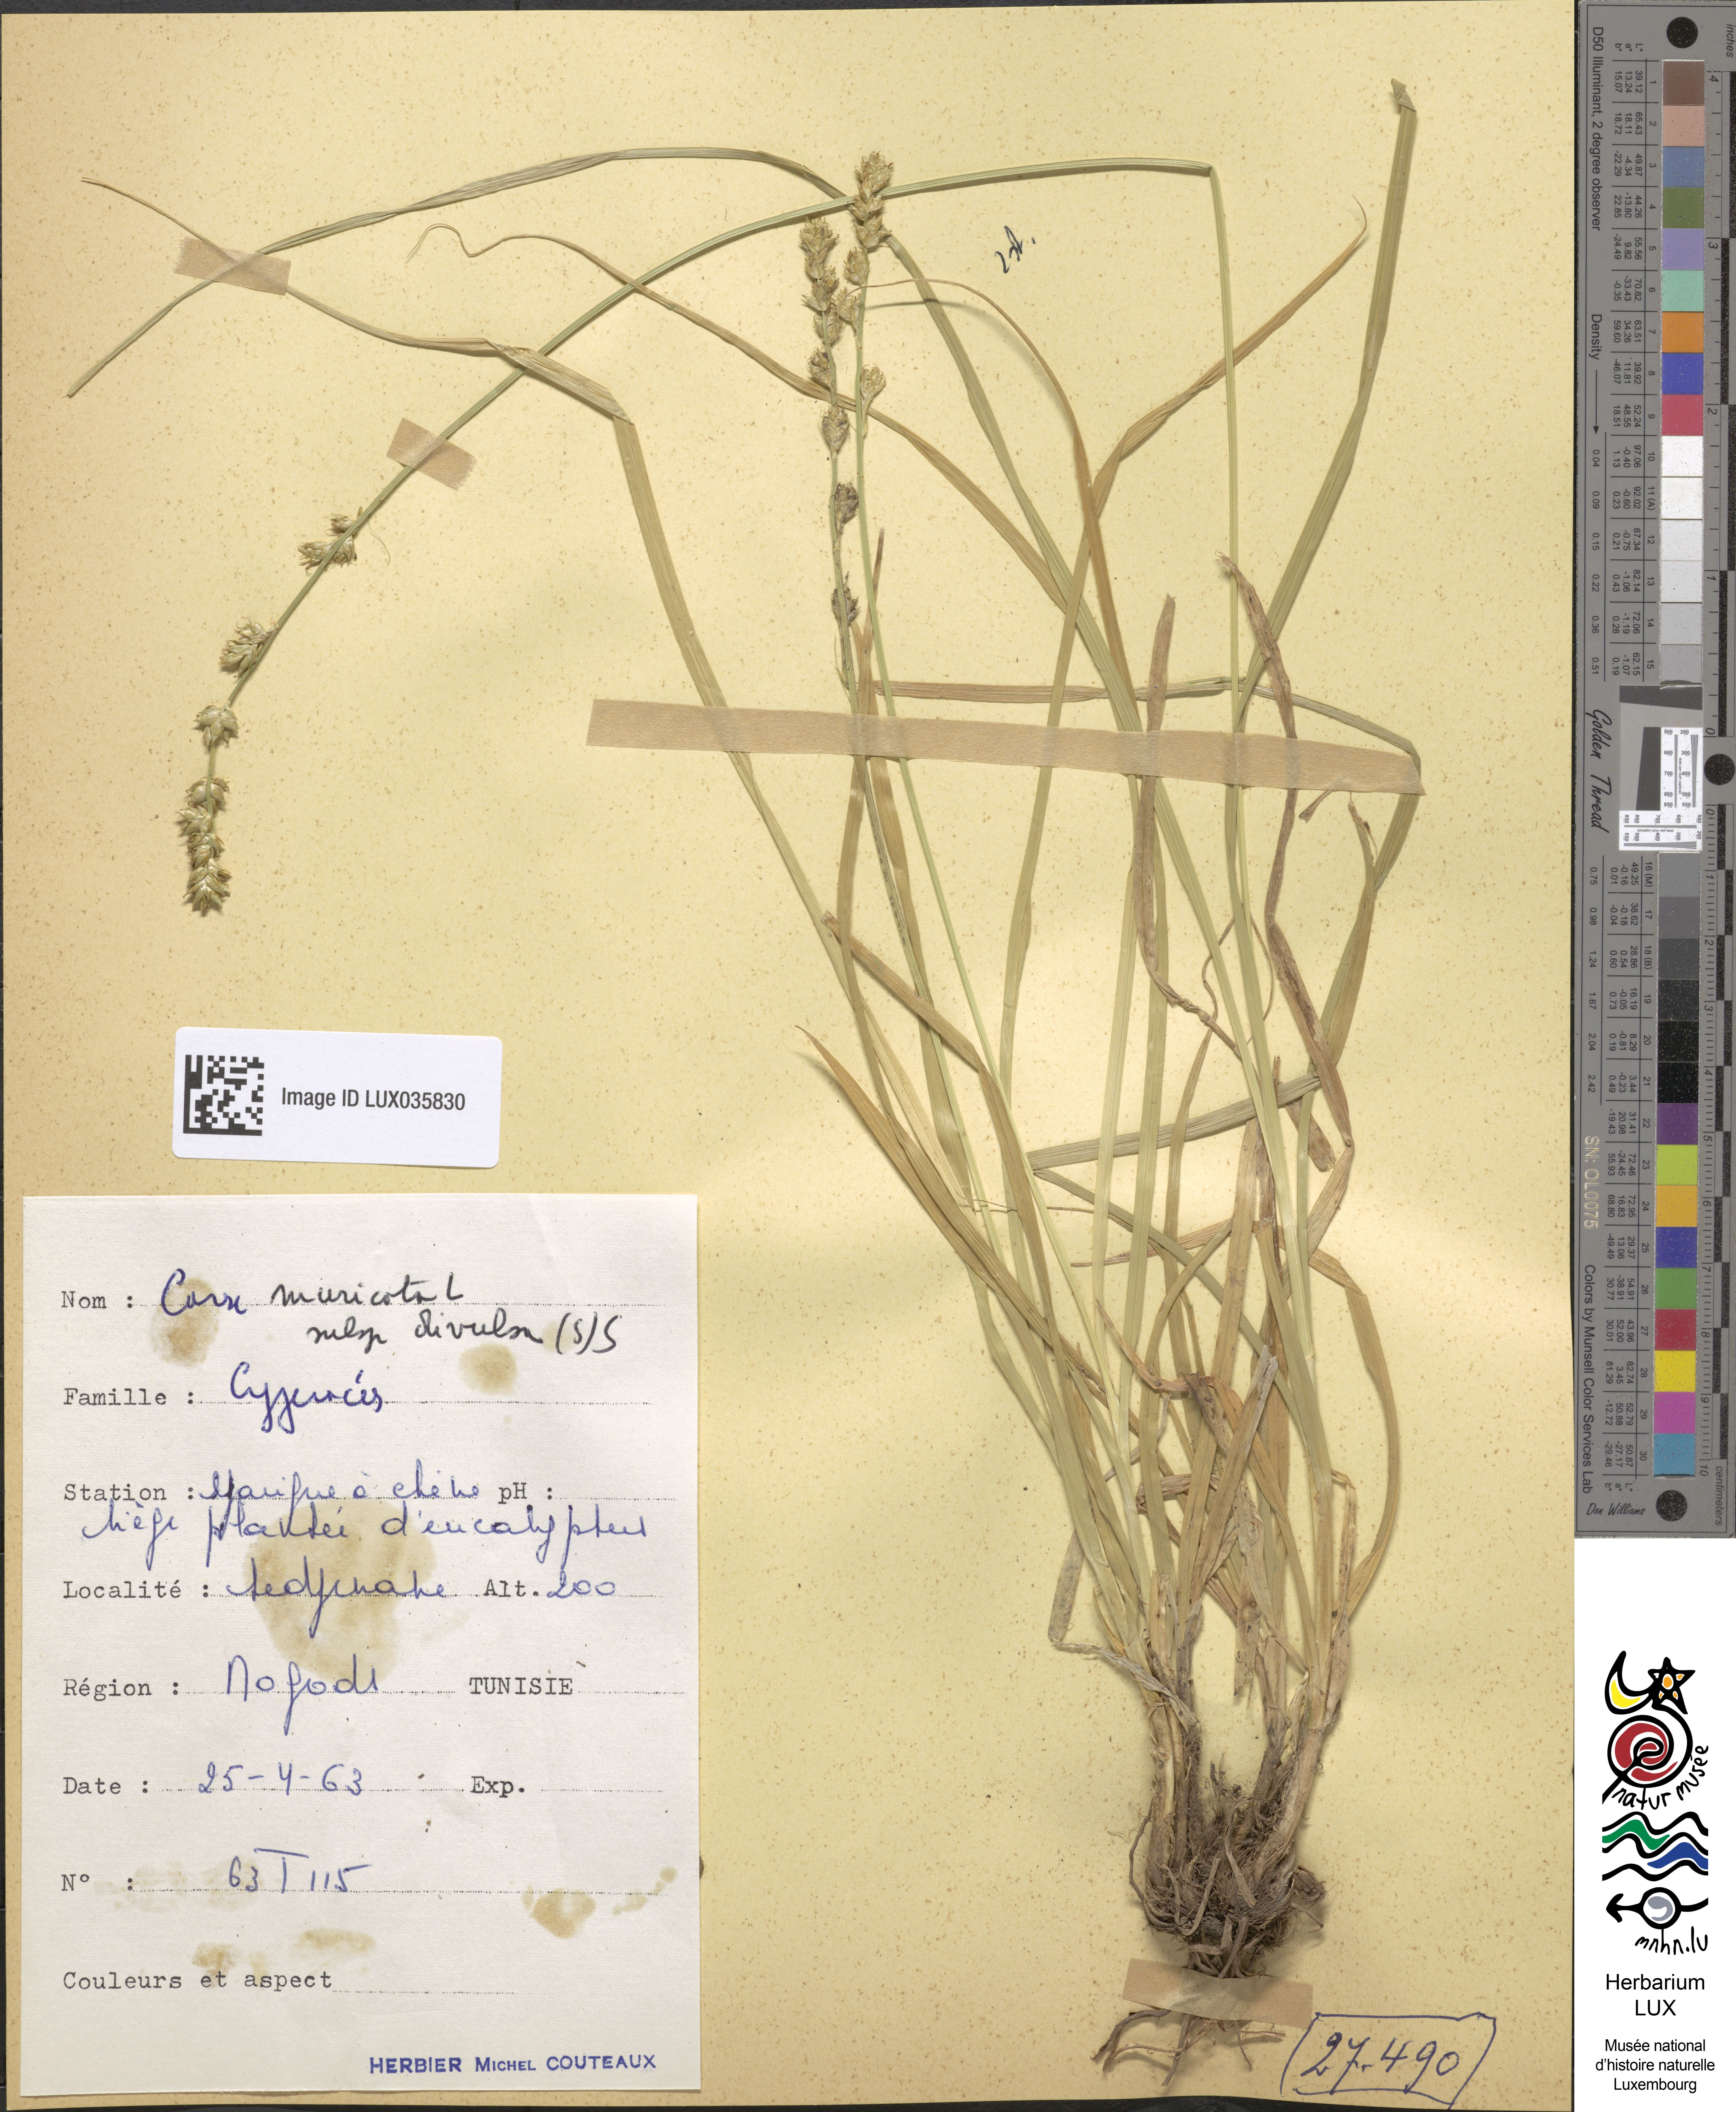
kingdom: Plantae
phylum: Tracheophyta
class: Liliopsida
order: Poales
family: Cyperaceae
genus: Carex
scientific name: Carex divulsa
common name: Grassland sedge
